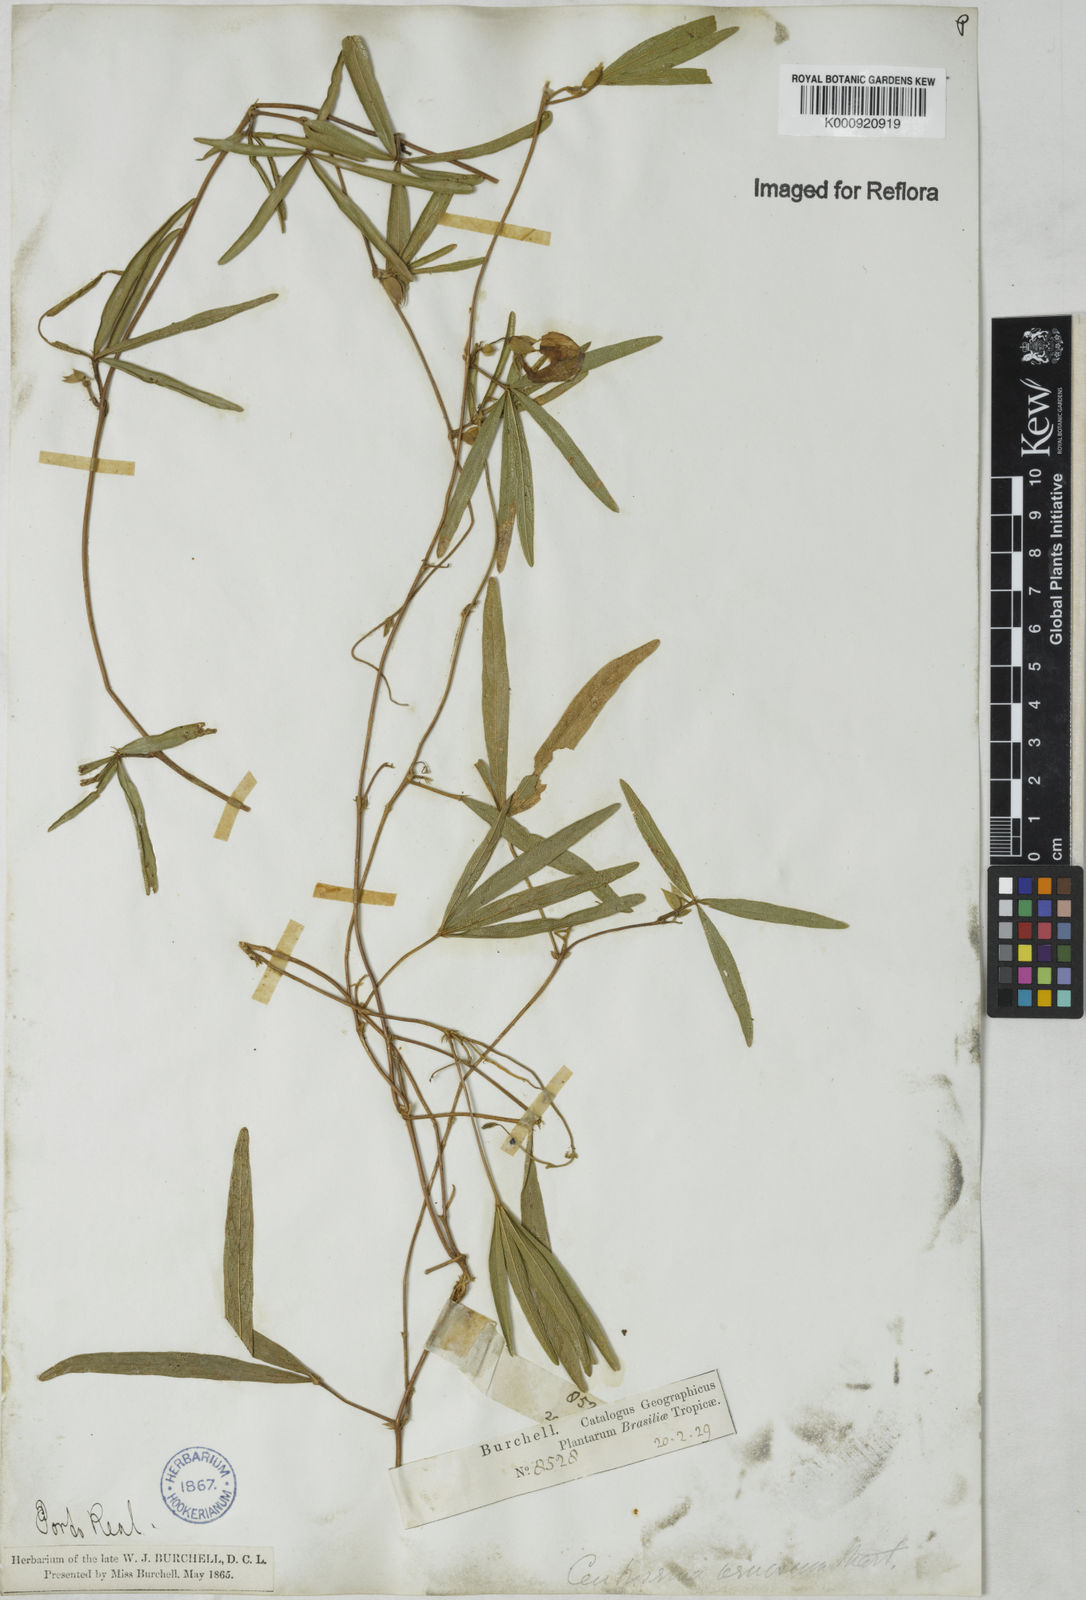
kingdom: Plantae
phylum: Tracheophyta
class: Magnoliopsida
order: Fabales
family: Fabaceae
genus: Centrosema
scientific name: Centrosema
